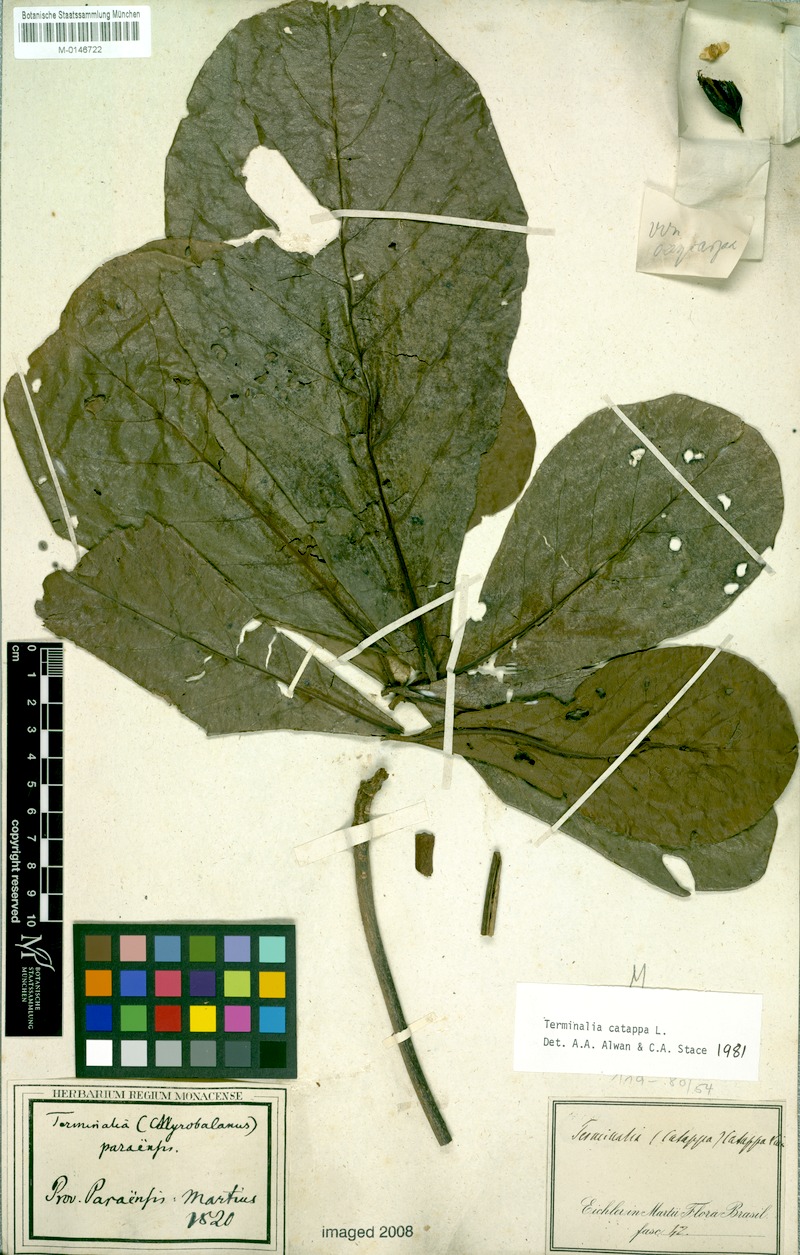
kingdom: Plantae
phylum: Tracheophyta
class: Magnoliopsida
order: Myrtales
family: Combretaceae
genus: Terminalia
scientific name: Terminalia catappa
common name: Tropical almond
